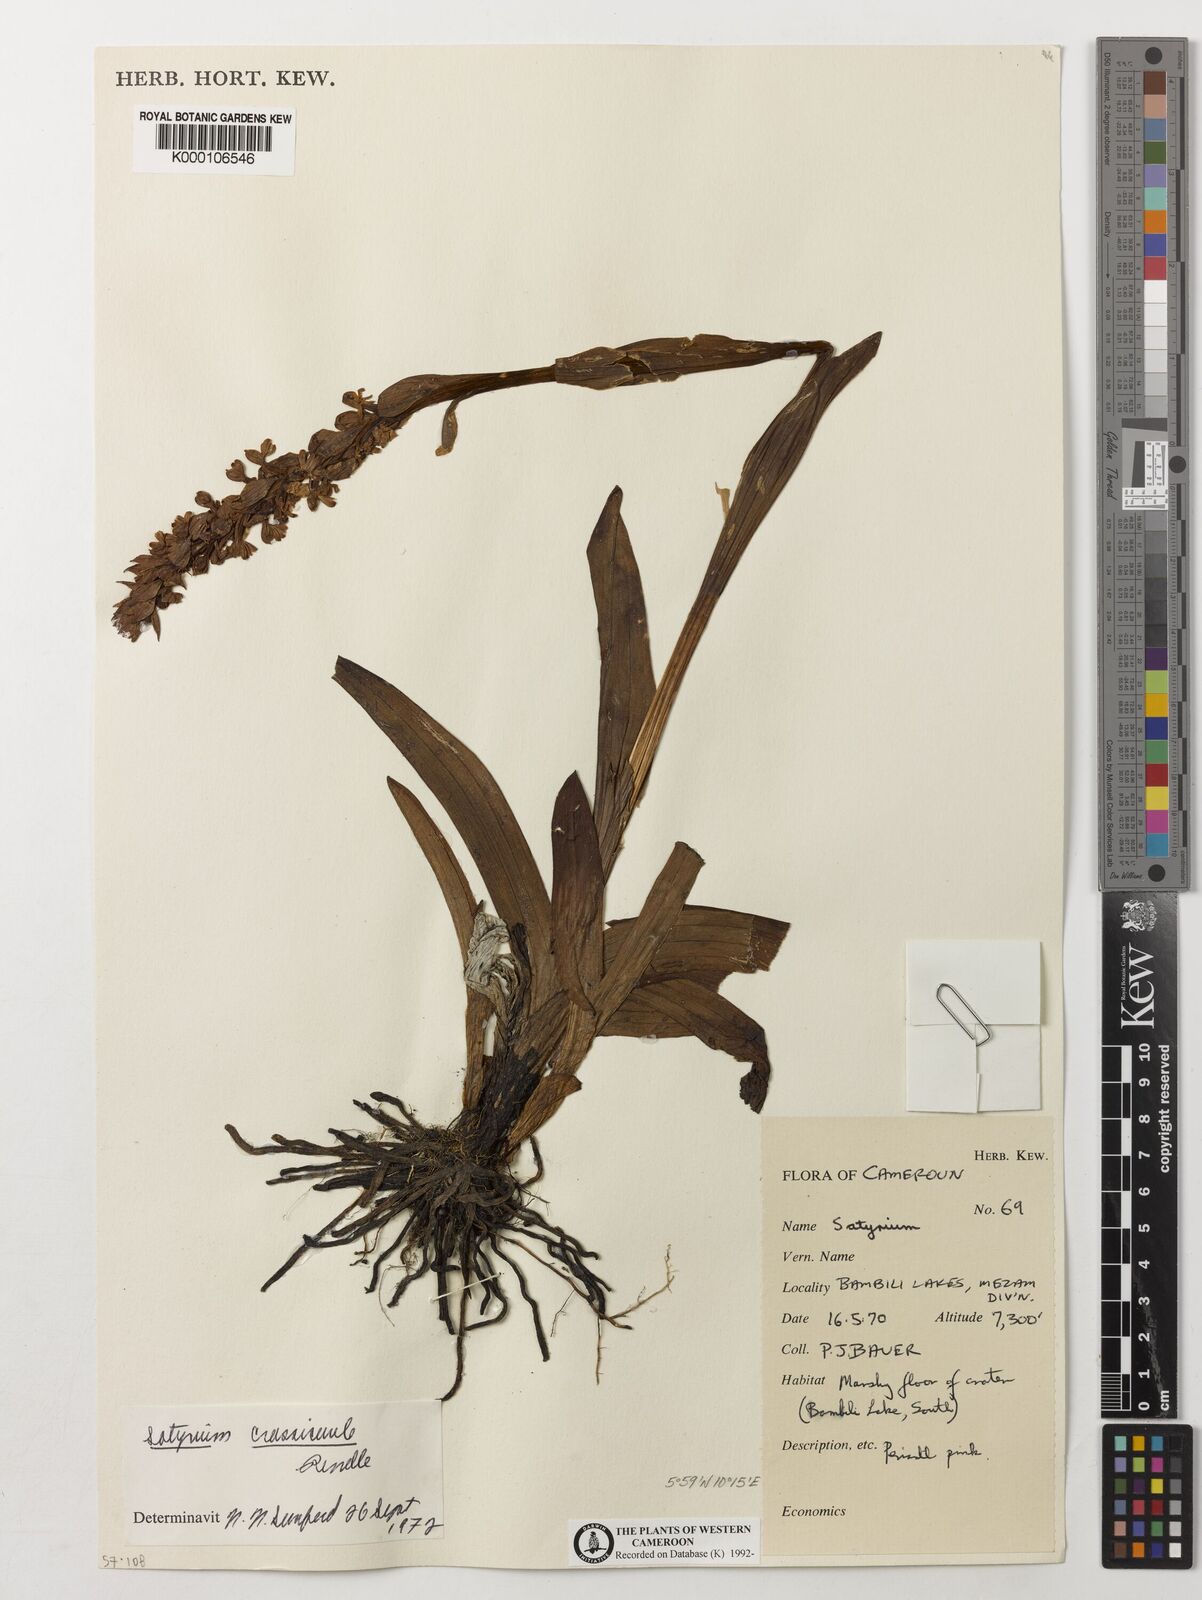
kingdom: Plantae
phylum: Tracheophyta
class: Liliopsida
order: Asparagales
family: Orchidaceae
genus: Satyrium
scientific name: Satyrium crassicaule
